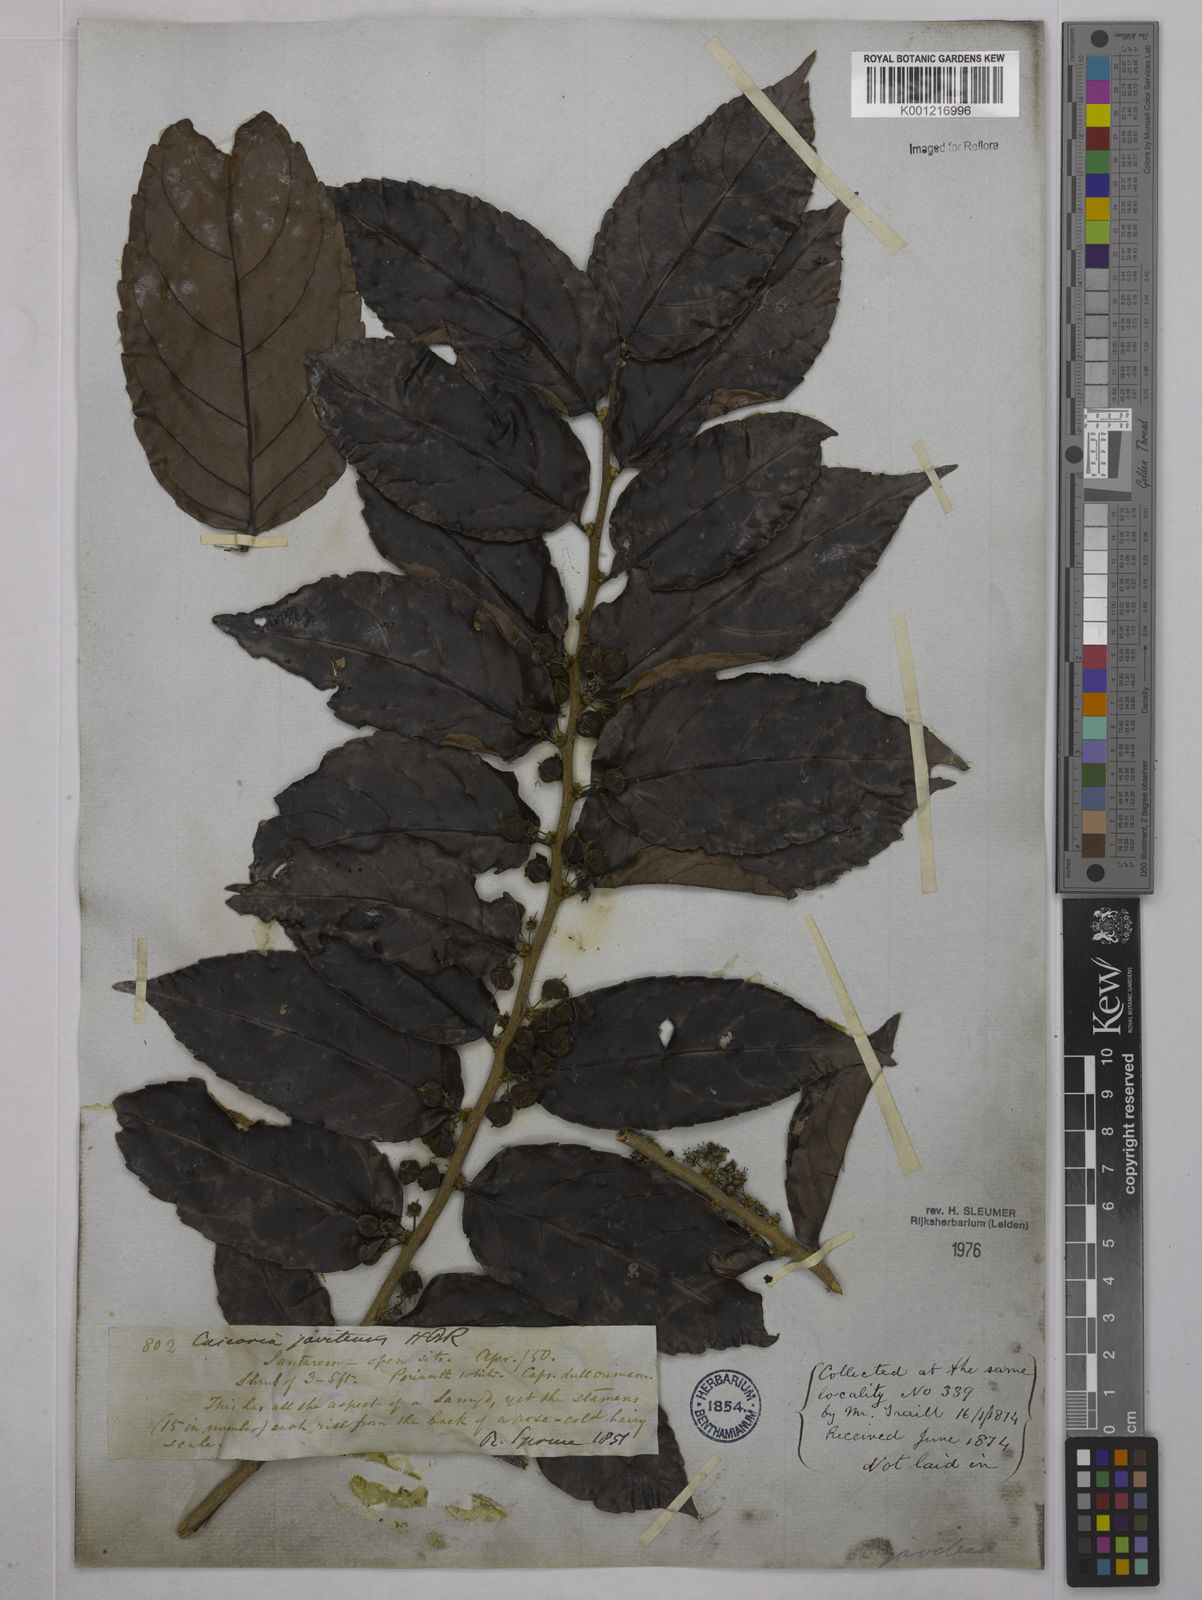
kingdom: Plantae
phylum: Tracheophyta
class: Magnoliopsida
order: Malpighiales
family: Salicaceae
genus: Piparea
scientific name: Piparea multiflora
